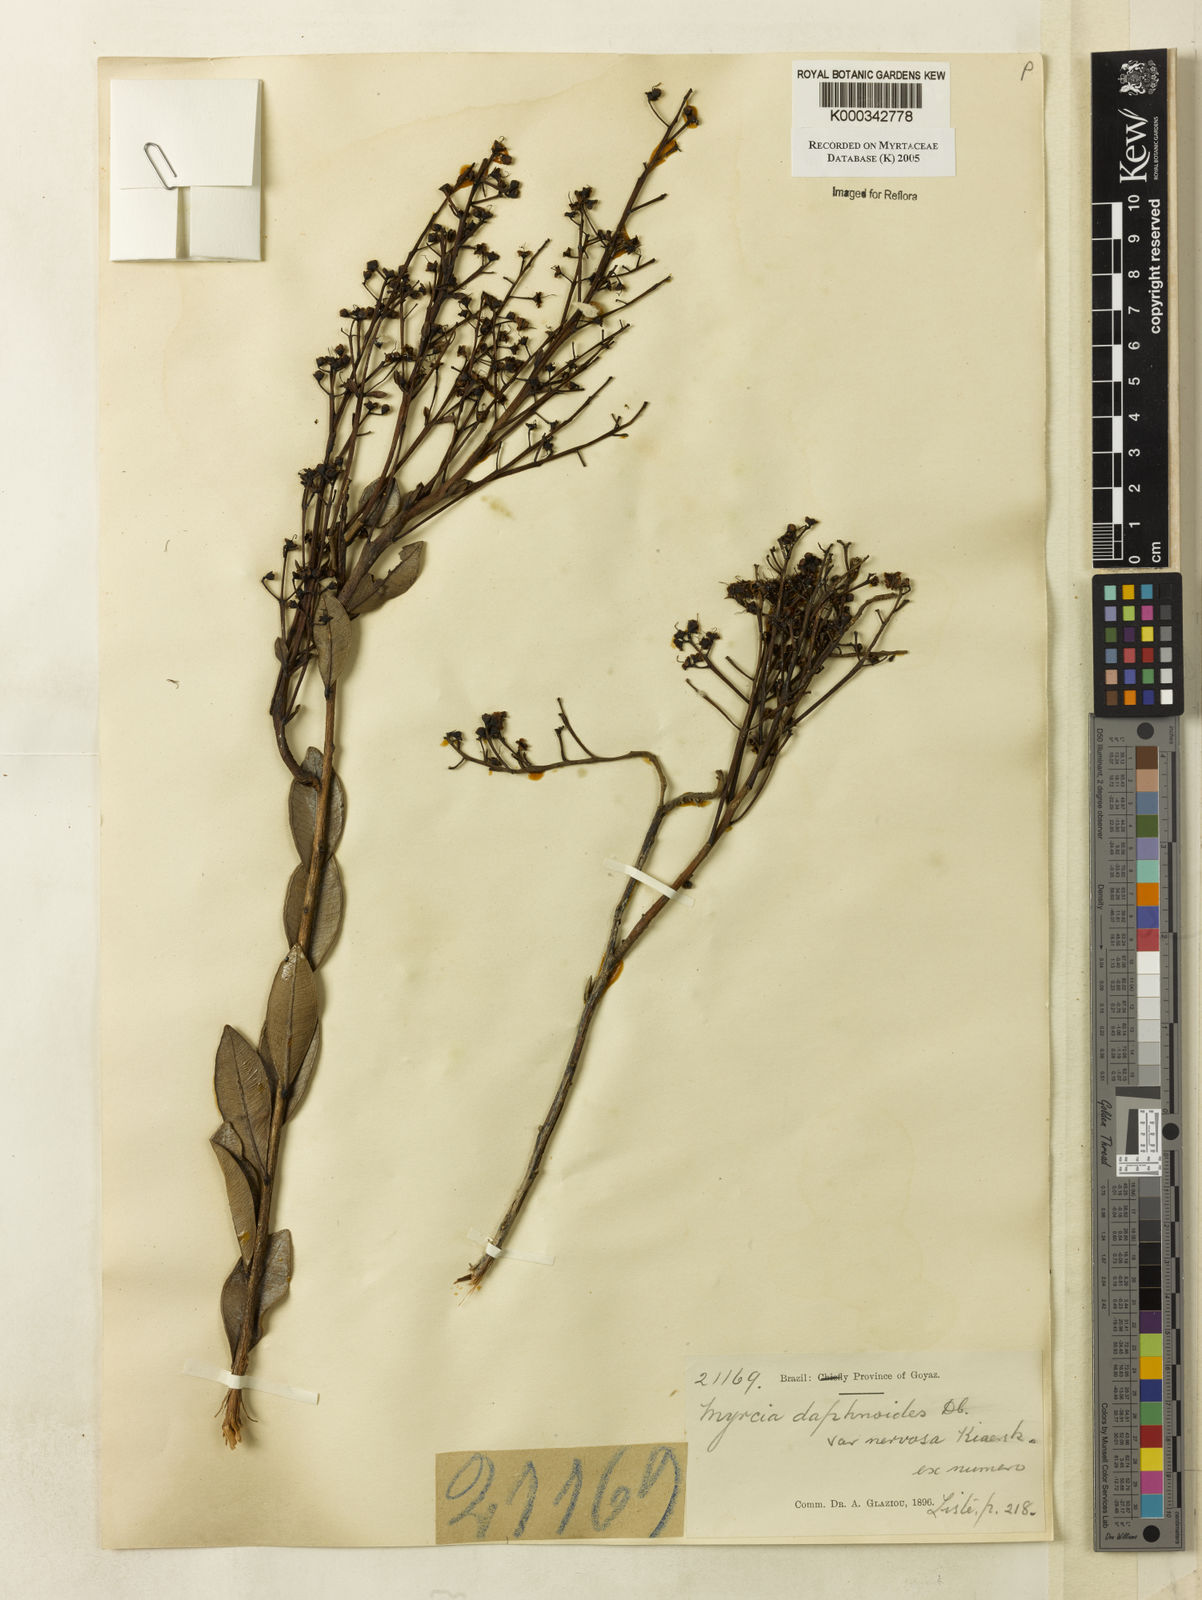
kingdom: Plantae
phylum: Tracheophyta
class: Magnoliopsida
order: Myrtales
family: Myrtaceae
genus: Myrcia
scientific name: Myrcia guianensis
